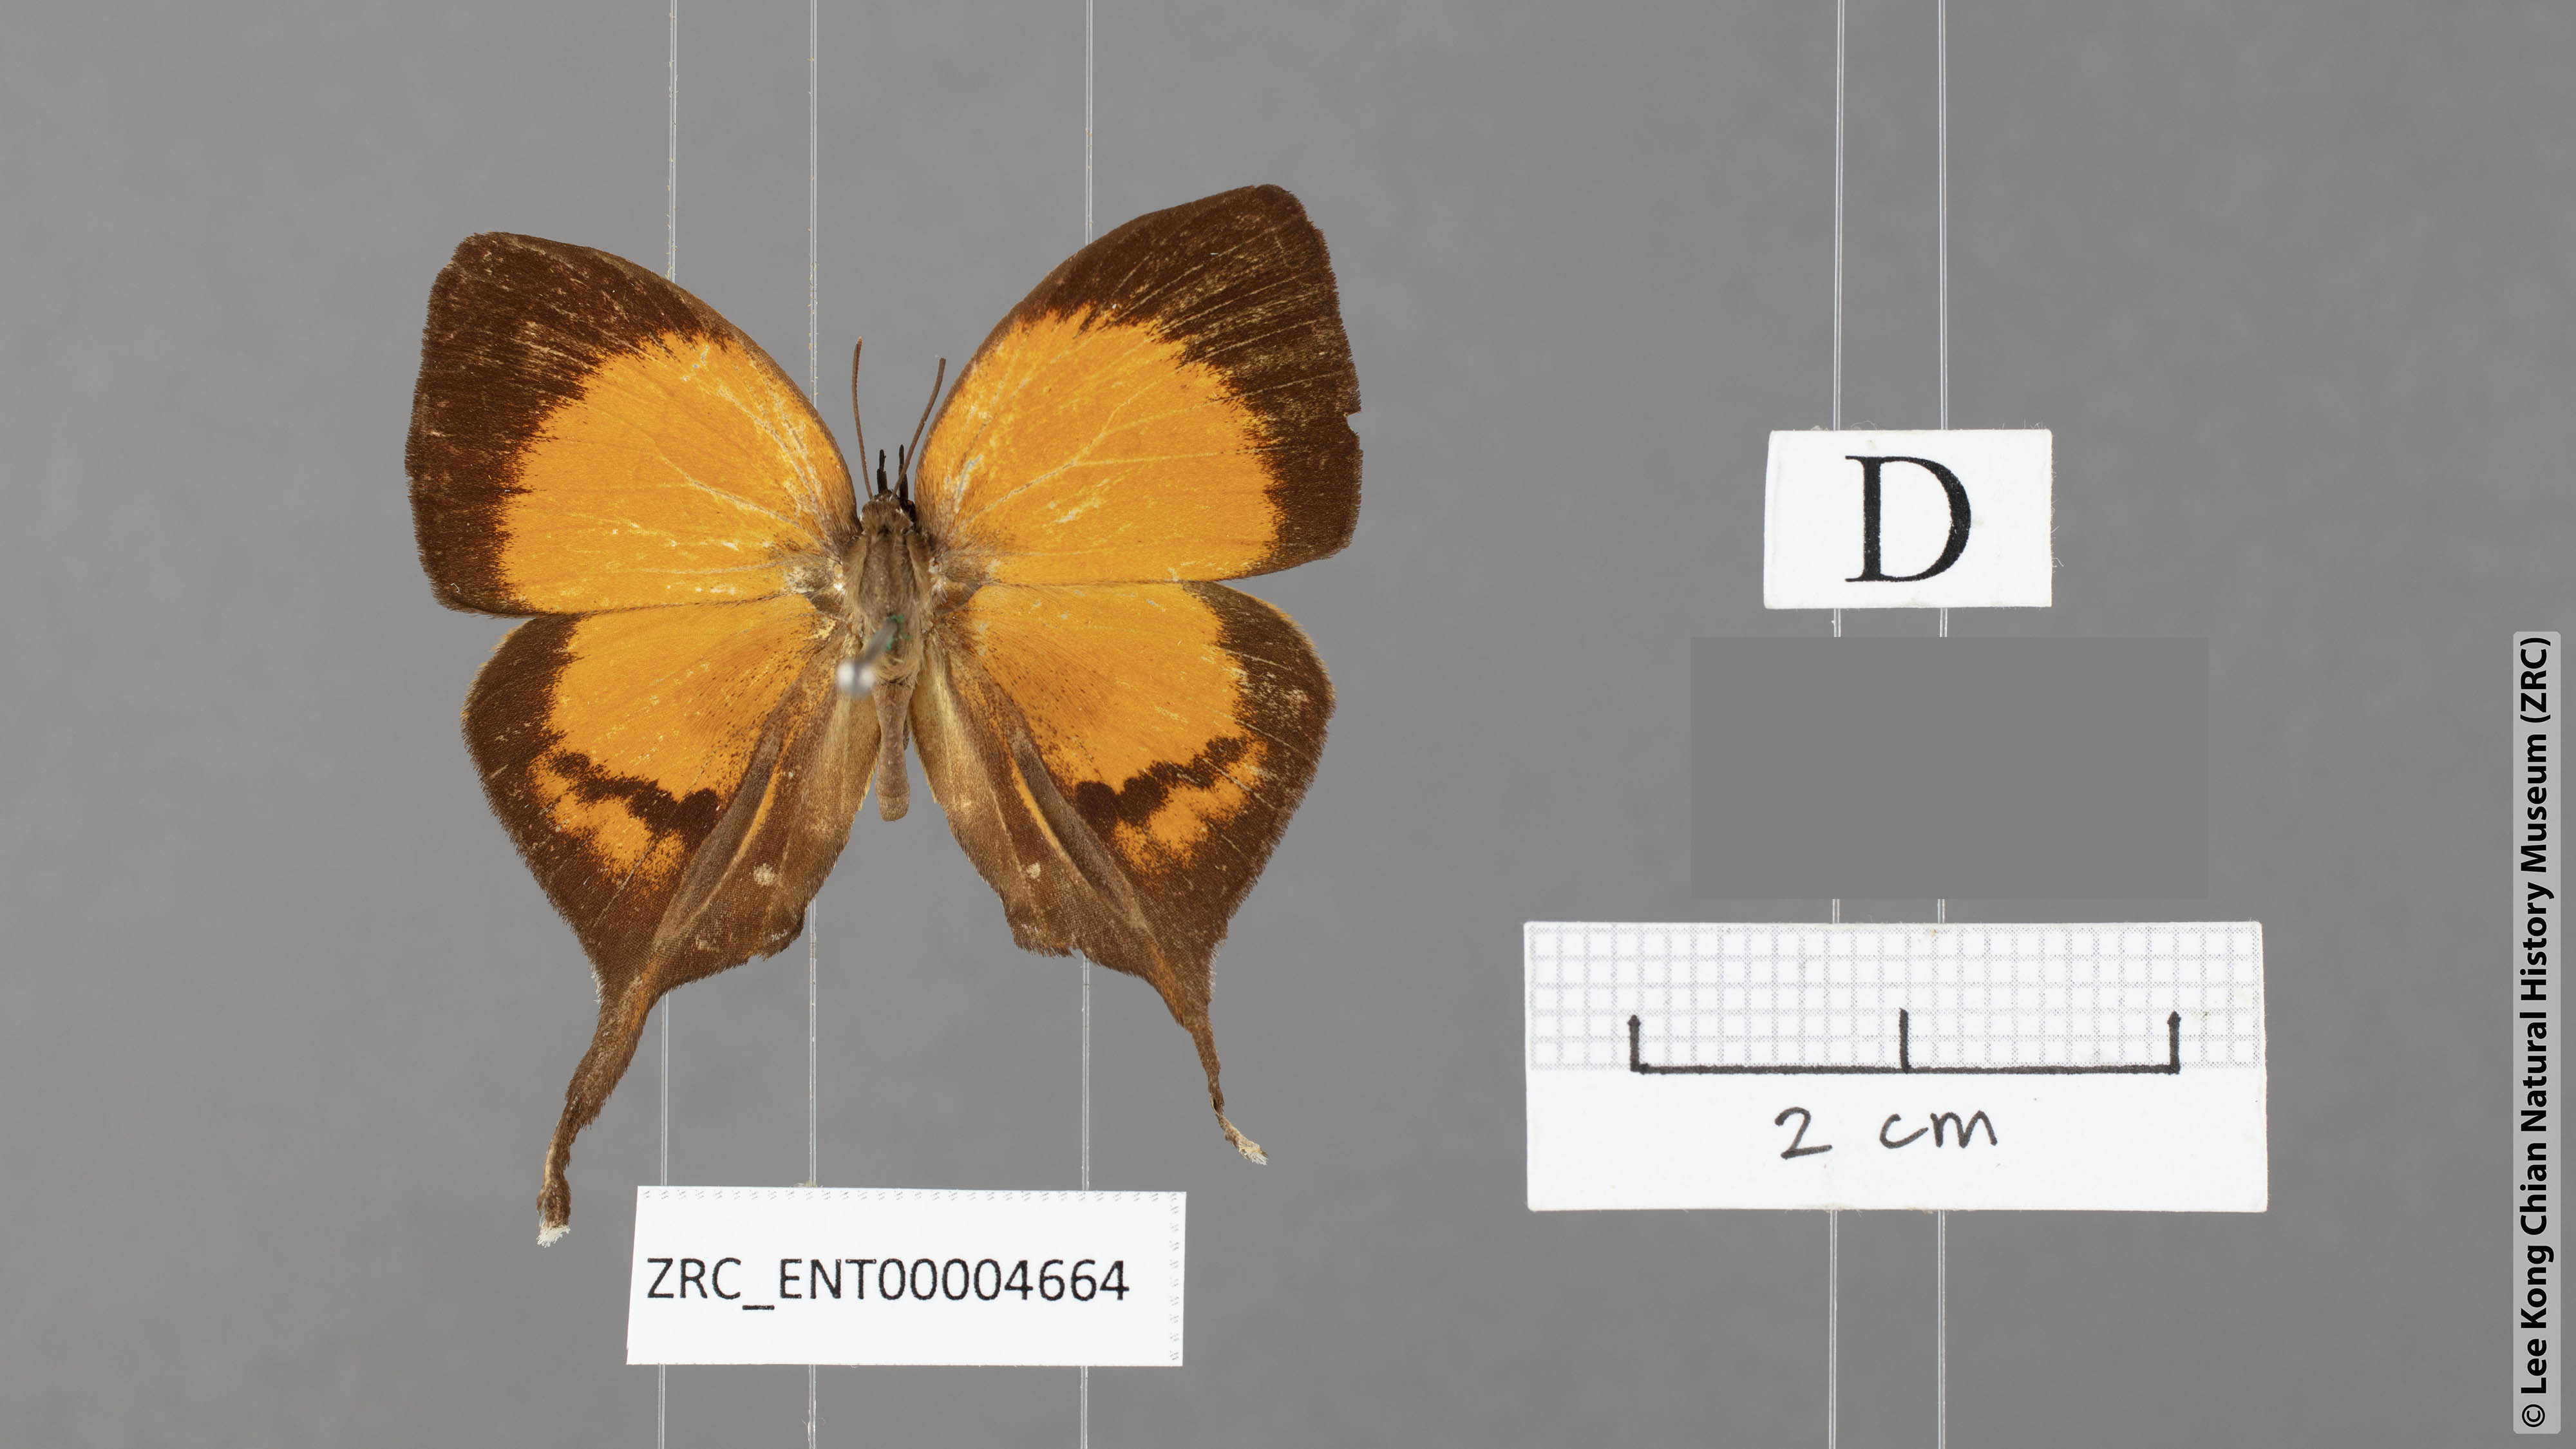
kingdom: Animalia
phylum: Arthropoda
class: Insecta
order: Lepidoptera
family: Lycaenidae
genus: Yasoda
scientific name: Yasoda pitane
